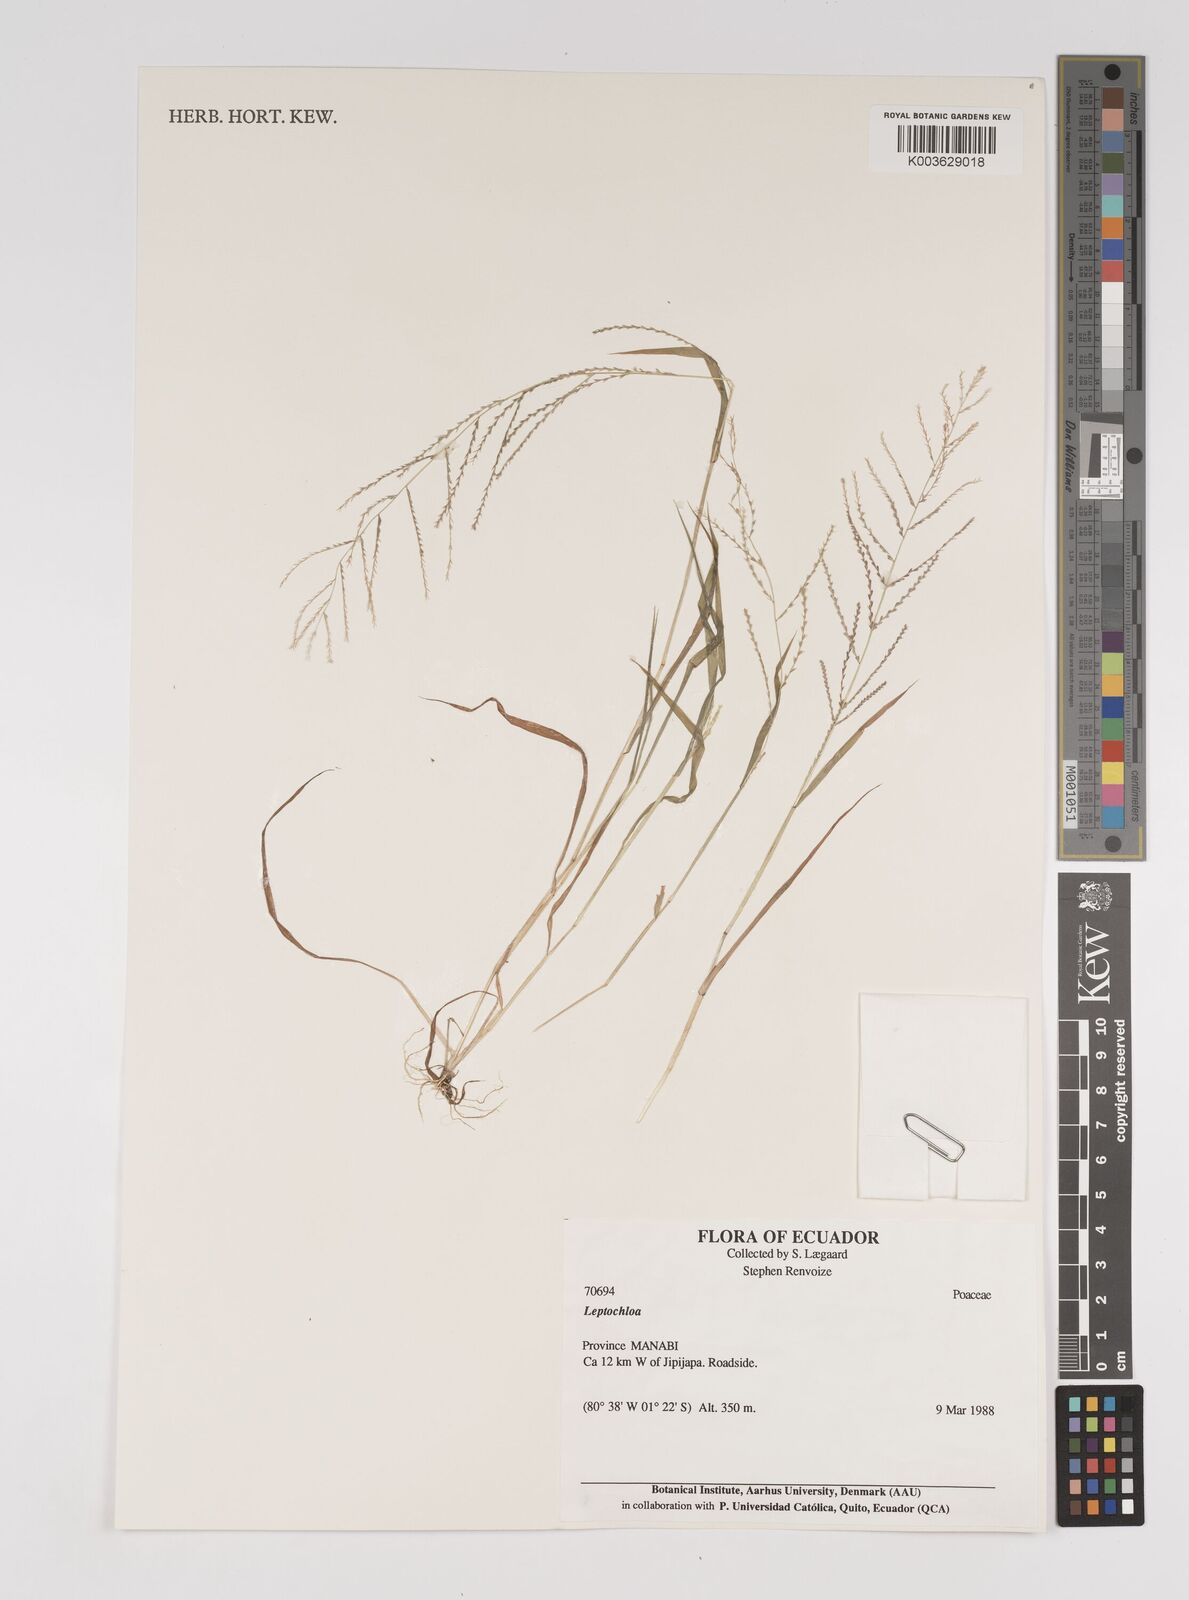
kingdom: Plantae
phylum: Tracheophyta
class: Liliopsida
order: Poales
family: Poaceae
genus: Leptochloa
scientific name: Leptochloa panicea
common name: Mucronate sprangletop
